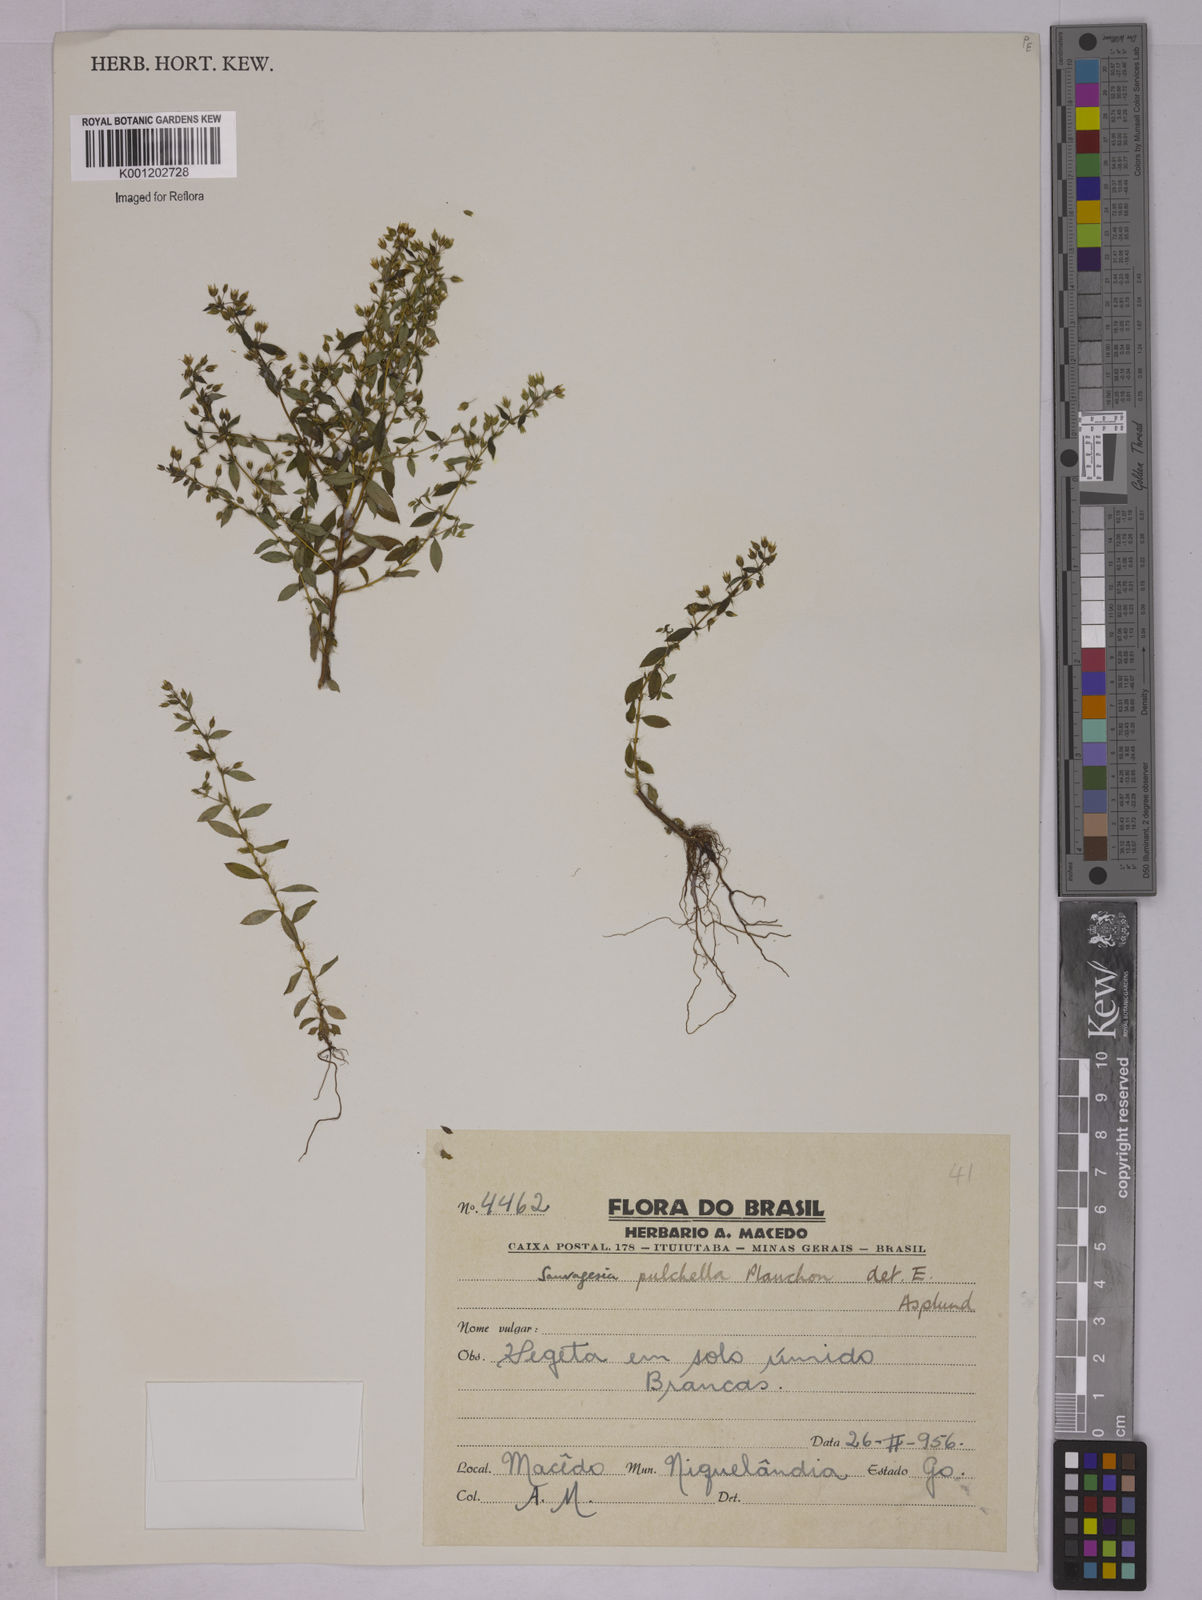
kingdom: Plantae
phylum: Tracheophyta
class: Magnoliopsida
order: Malpighiales
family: Ochnaceae
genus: Sauvagesia
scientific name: Sauvagesia
